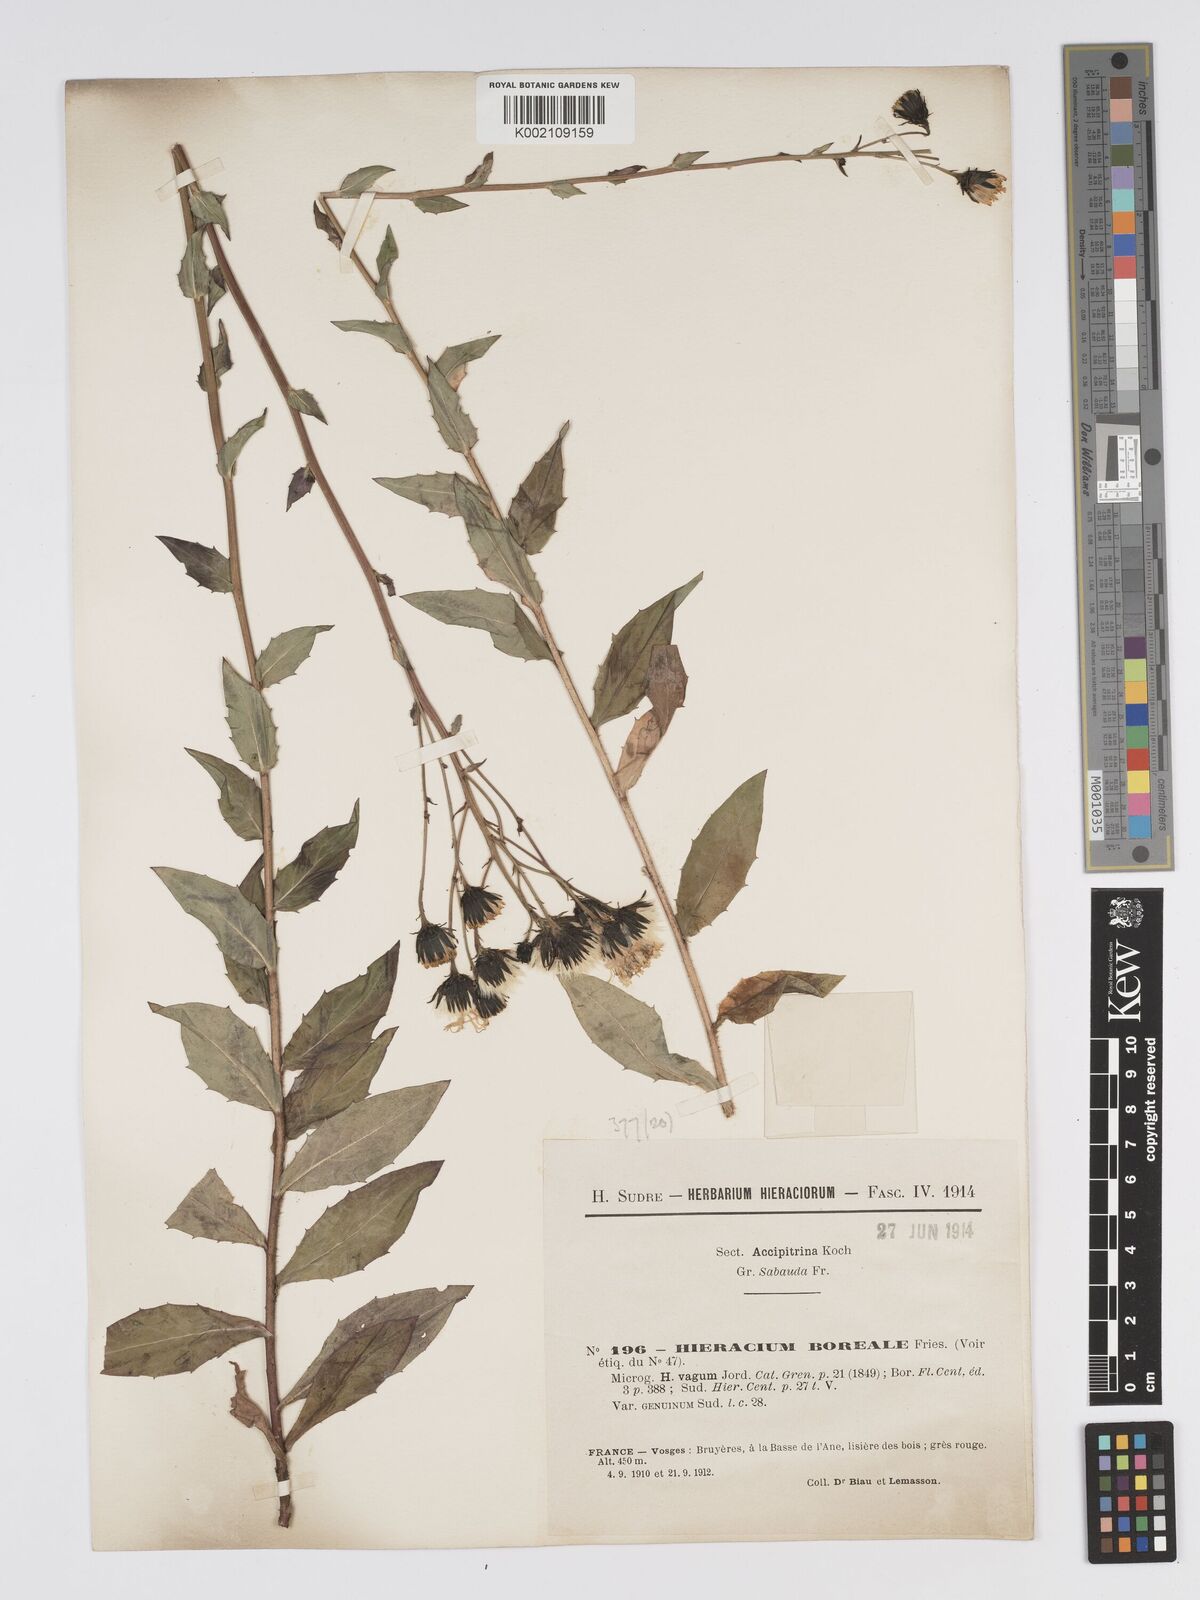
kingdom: Plantae
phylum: Tracheophyta
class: Magnoliopsida
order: Asterales
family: Asteraceae
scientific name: Asteraceae
